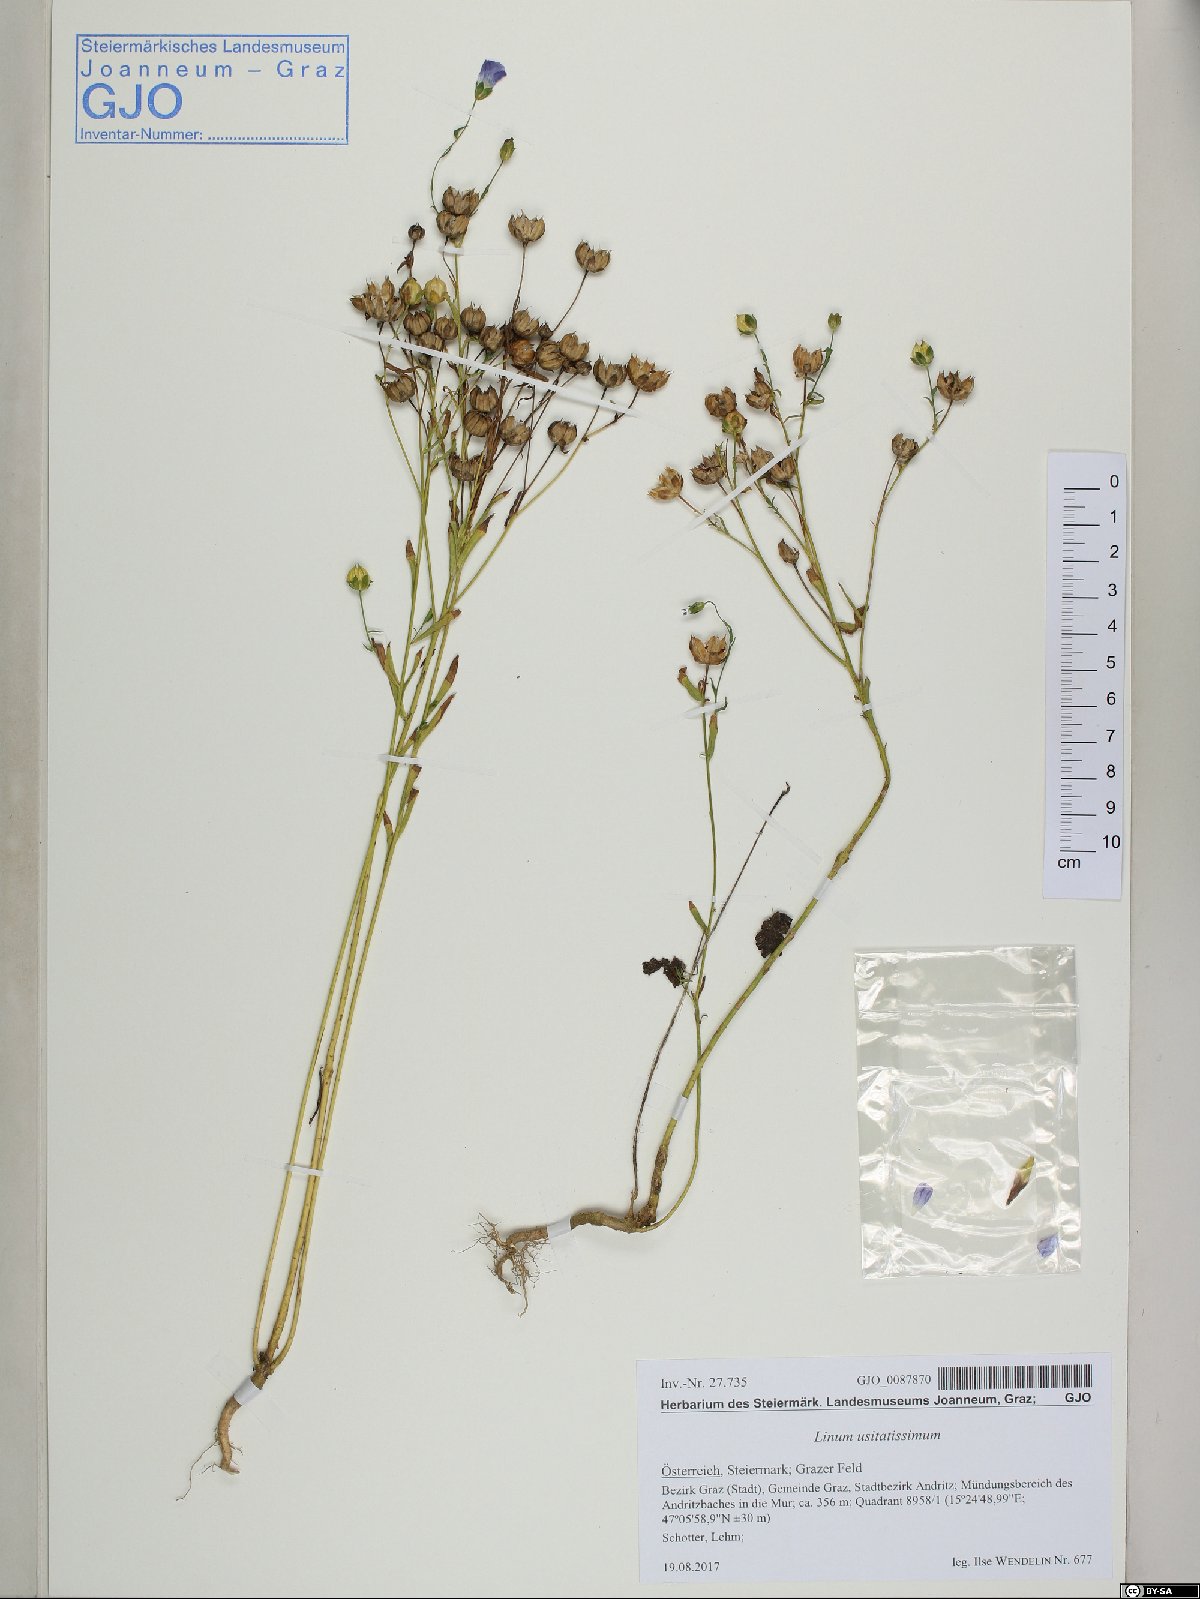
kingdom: Plantae
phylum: Tracheophyta
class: Magnoliopsida
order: Malpighiales
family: Linaceae
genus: Linum
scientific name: Linum usitatissimum
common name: Flax
